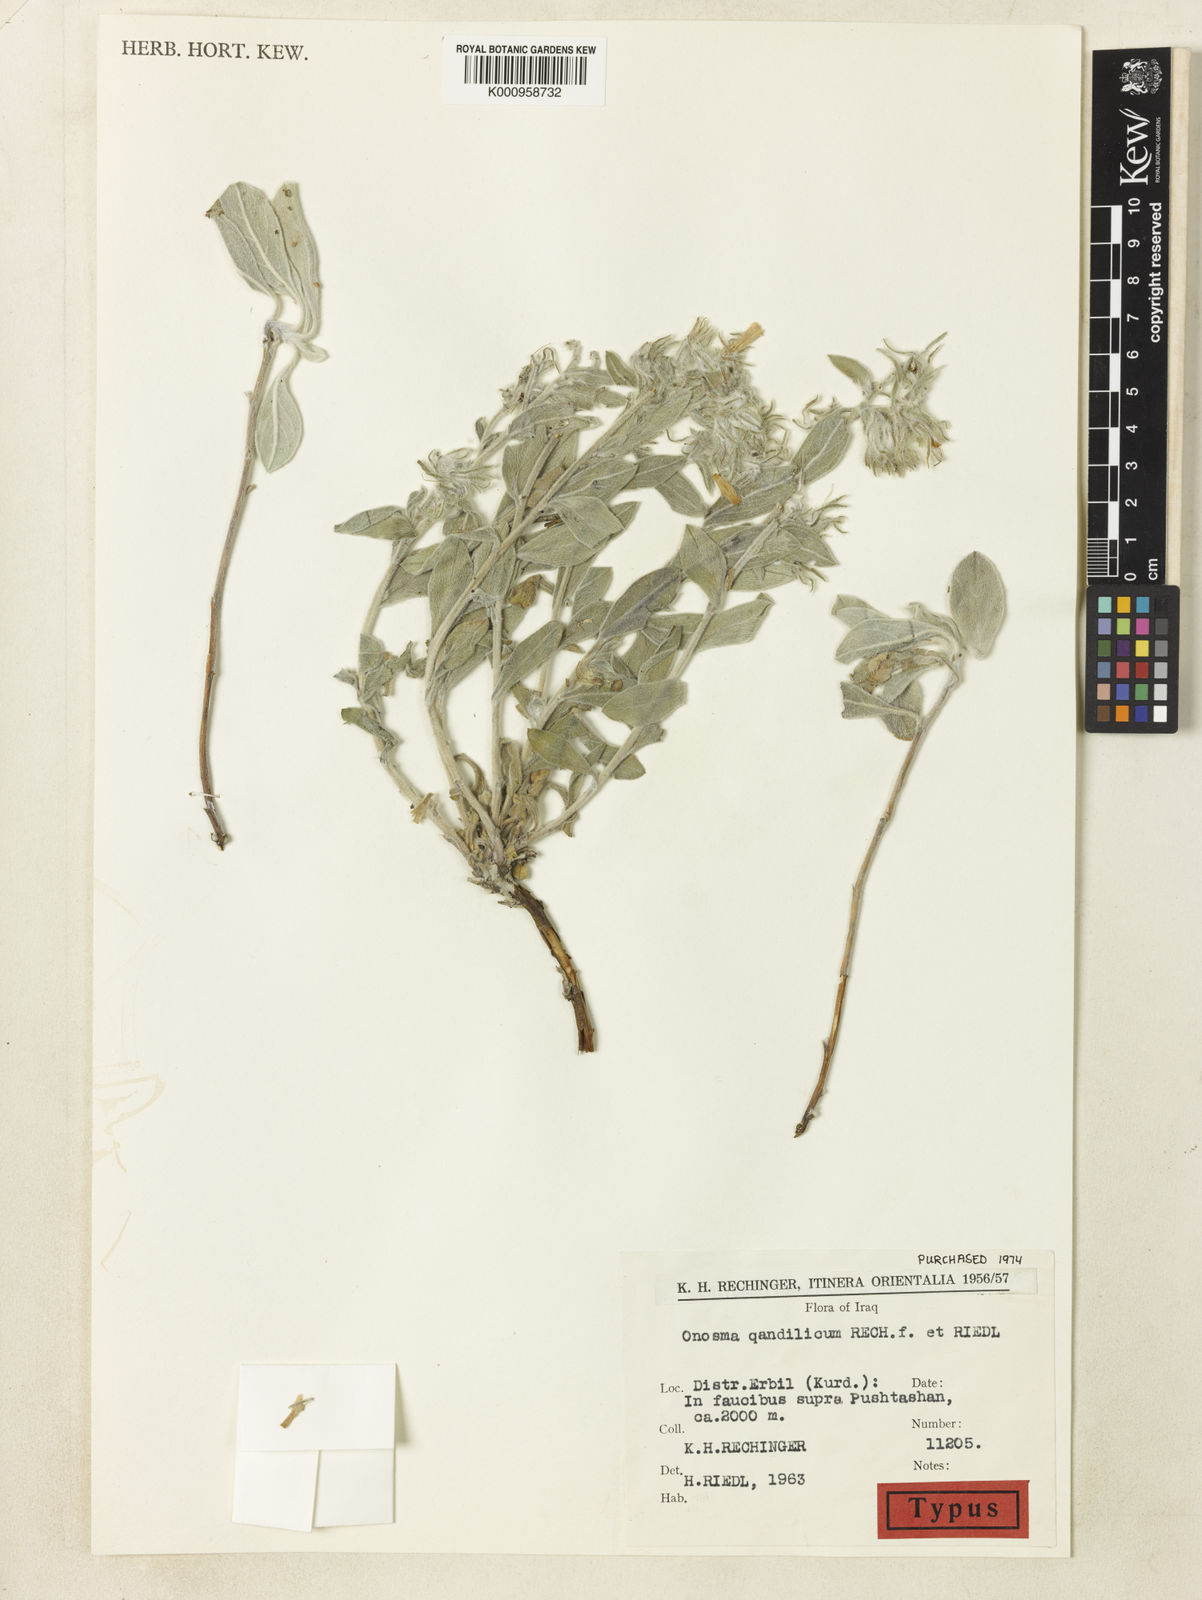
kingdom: Plantae
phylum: Tracheophyta
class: Magnoliopsida
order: Boraginales
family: Boraginaceae
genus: Onosma
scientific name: Onosma qandilica
